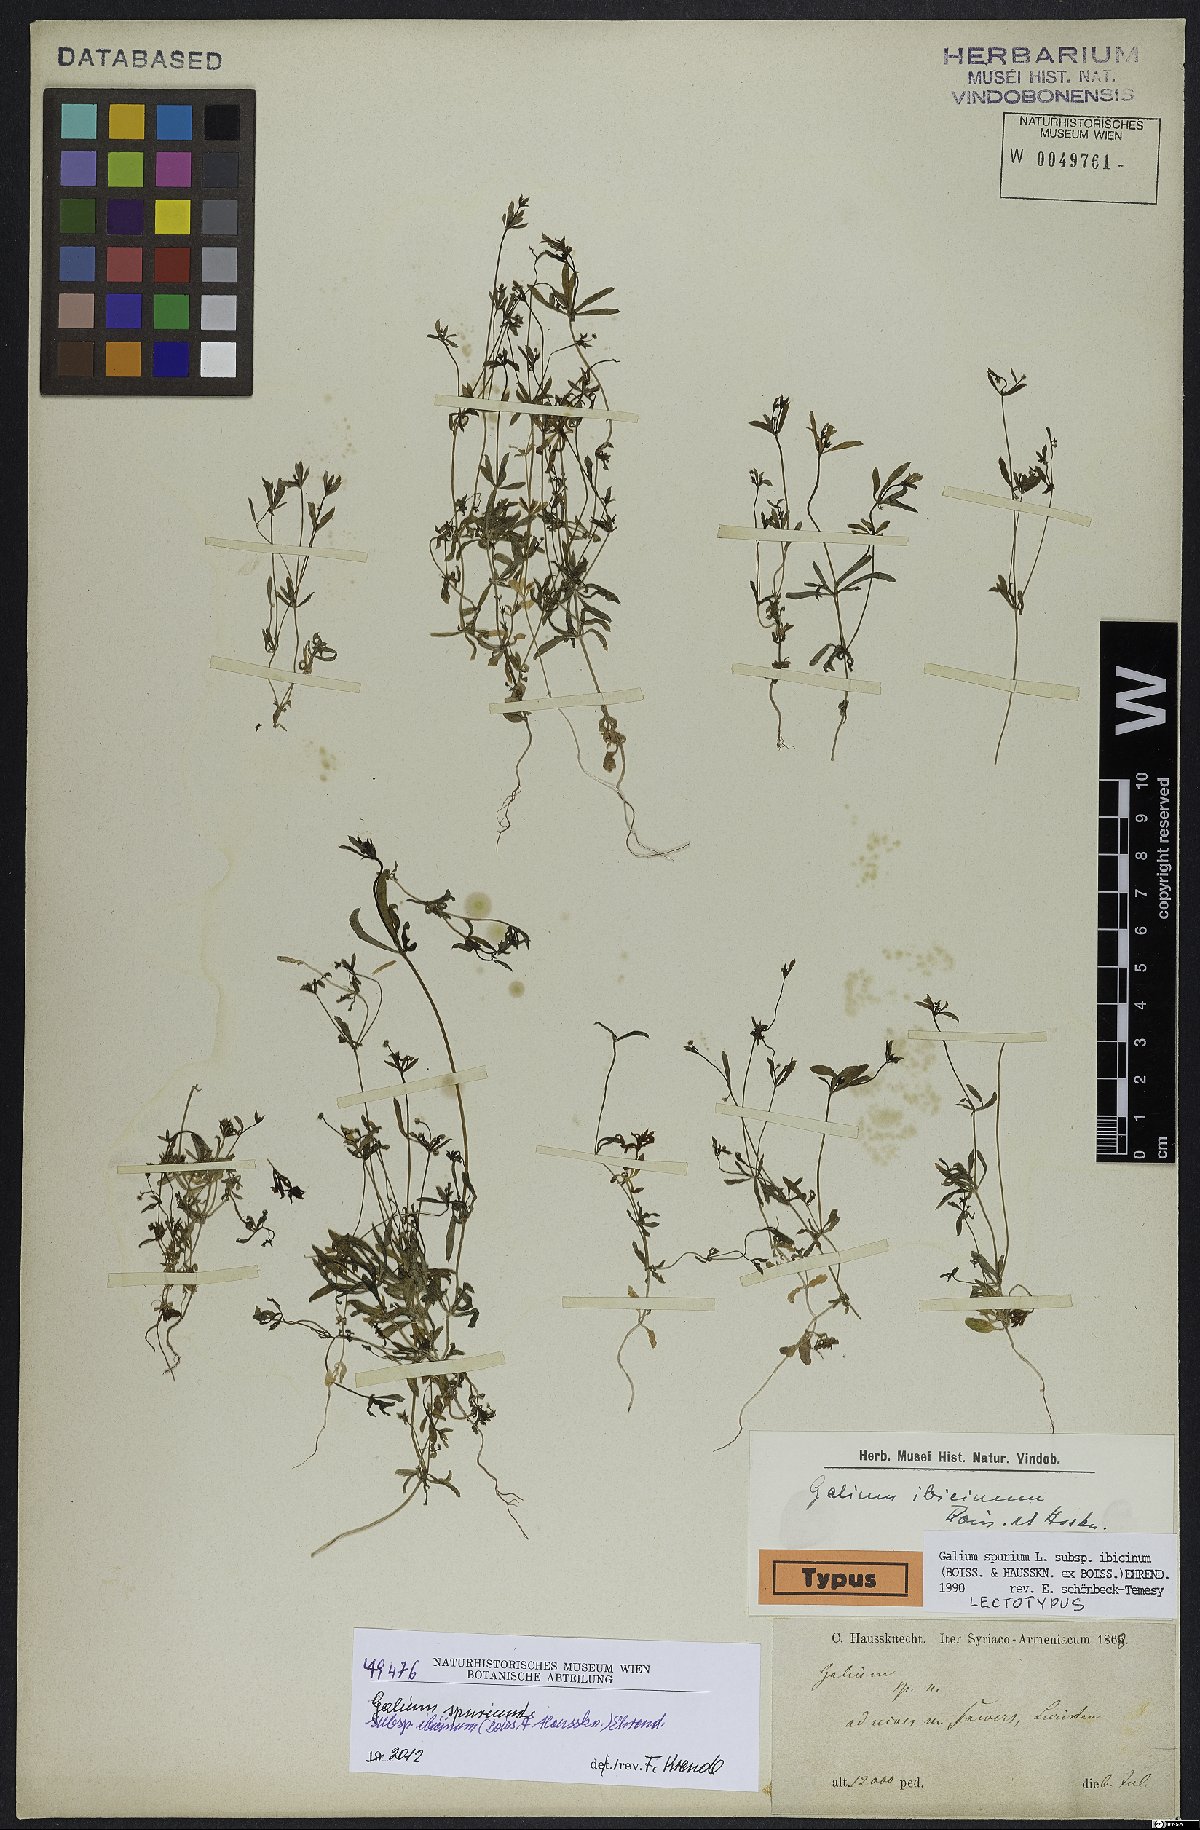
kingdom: Plantae
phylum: Tracheophyta
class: Magnoliopsida
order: Gentianales
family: Rubiaceae
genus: Galium
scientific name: Galium spurium
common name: False cleavers
